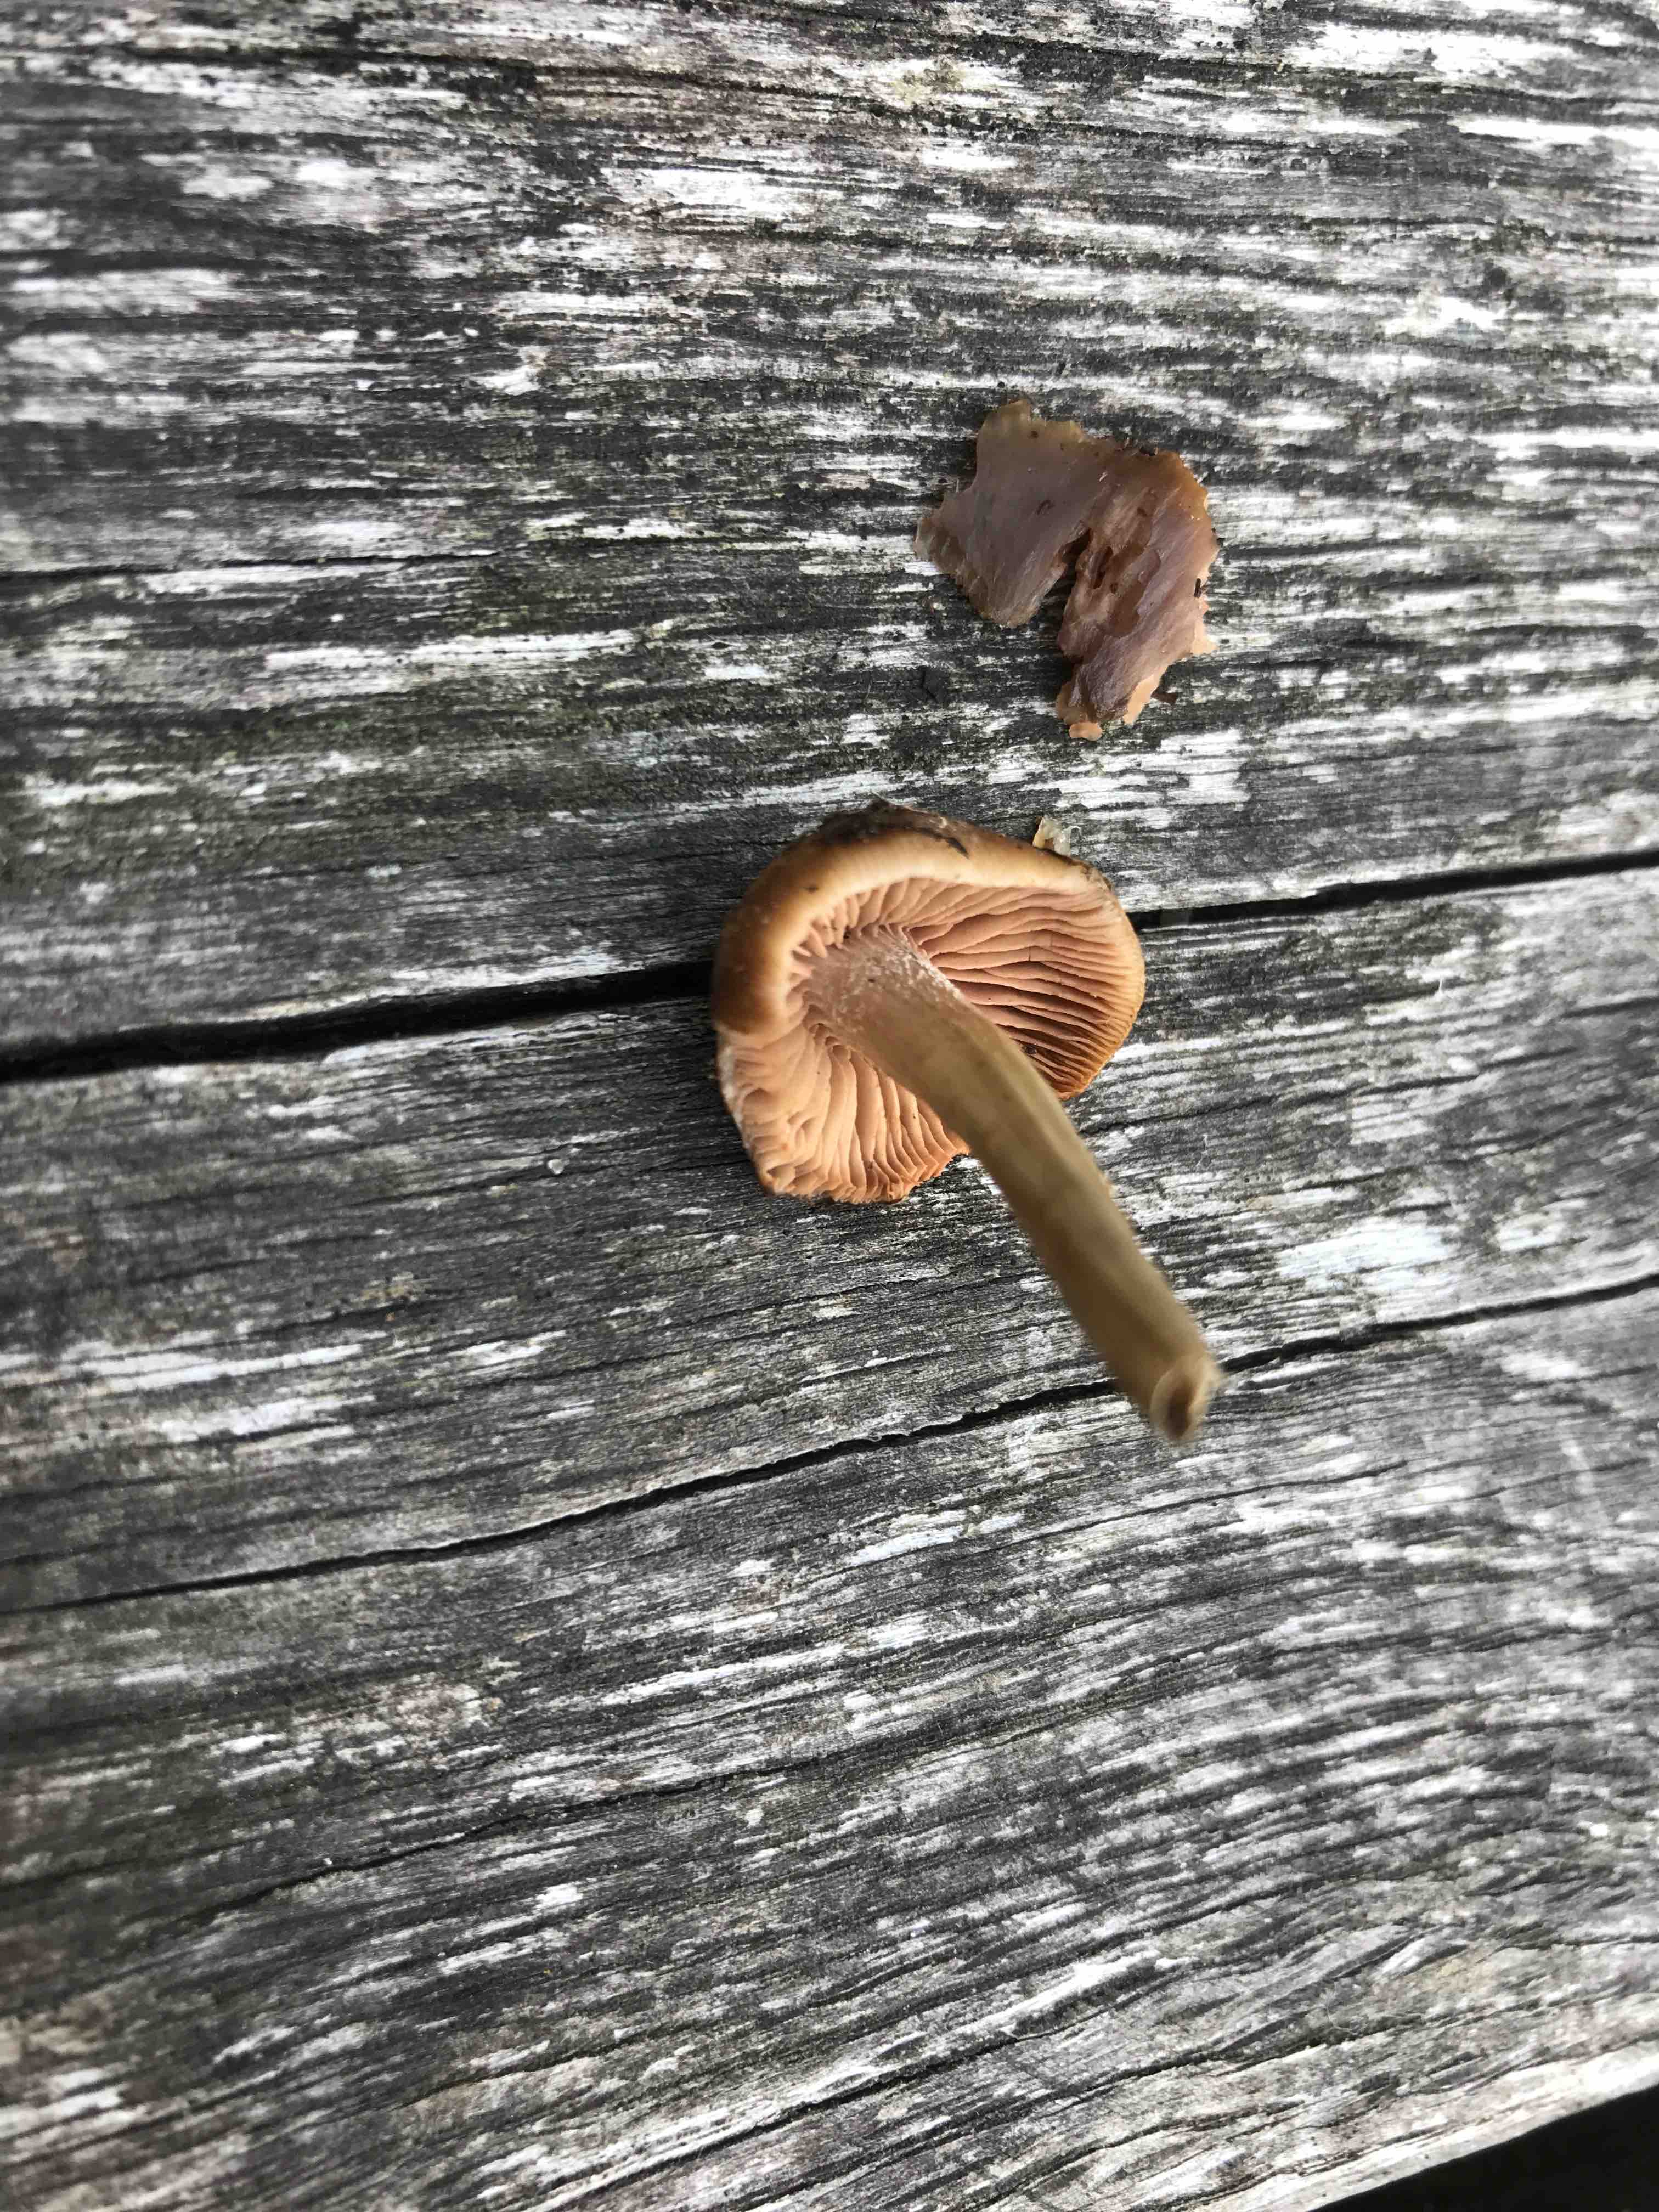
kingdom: Fungi
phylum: Basidiomycota
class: Agaricomycetes
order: Agaricales
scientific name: Agaricales
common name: champignonordenen
